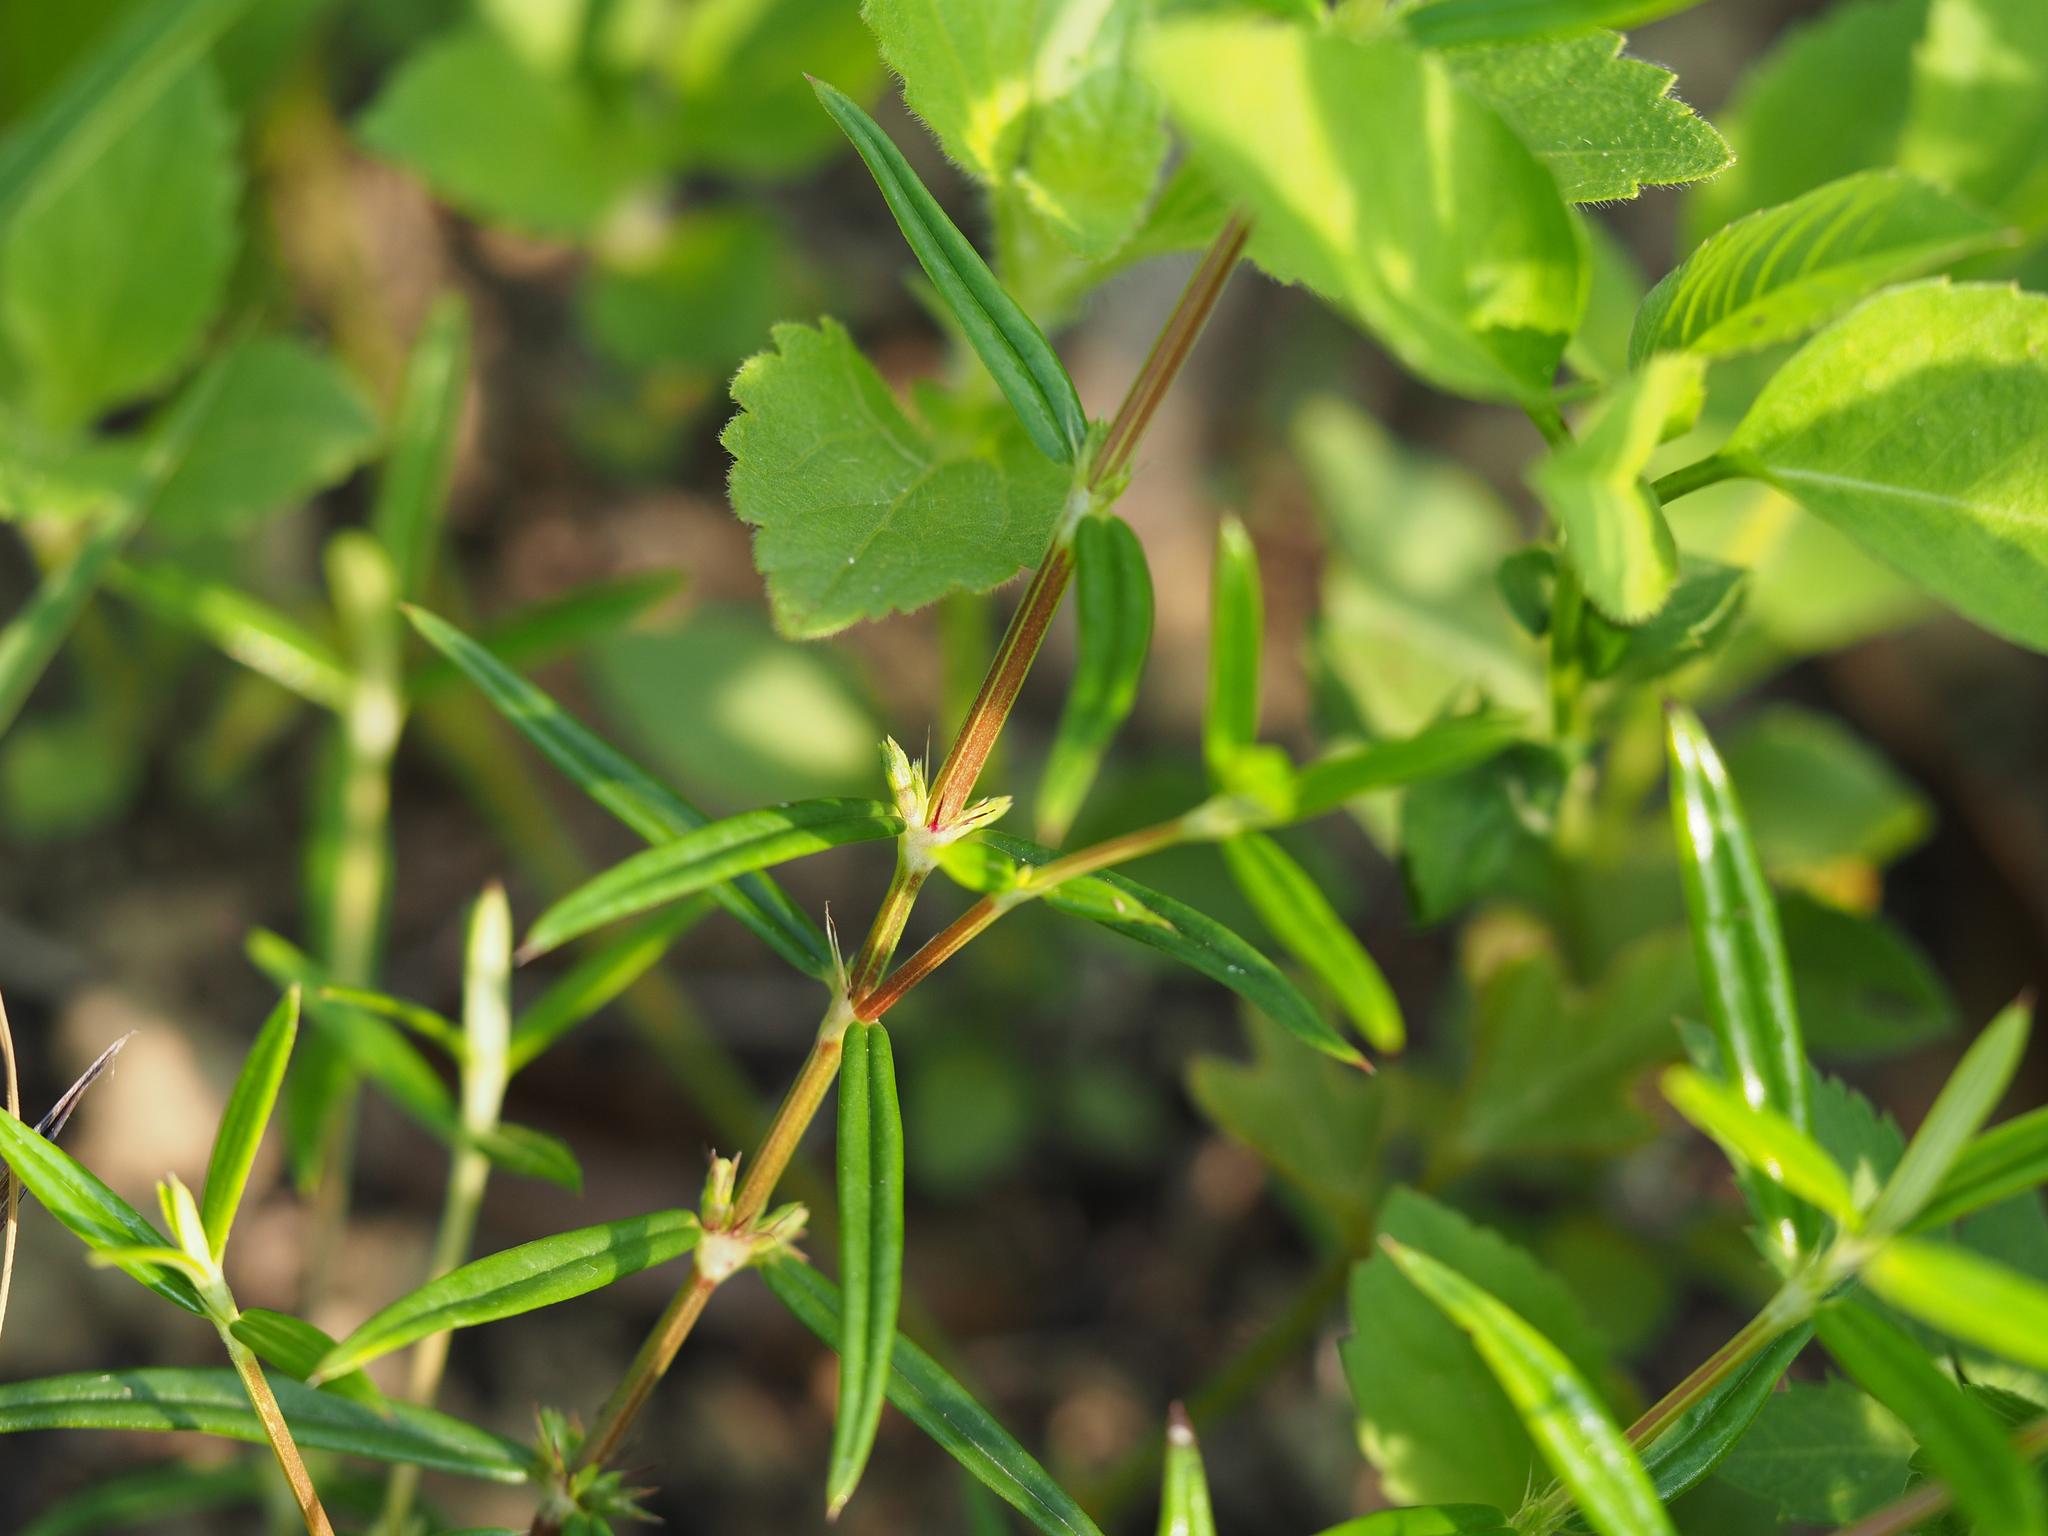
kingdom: Plantae
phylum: Tracheophyta
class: Magnoliopsida
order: Gentianales
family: Rubiaceae
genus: Scleromitrion
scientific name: Scleromitrion tenelliflorum
